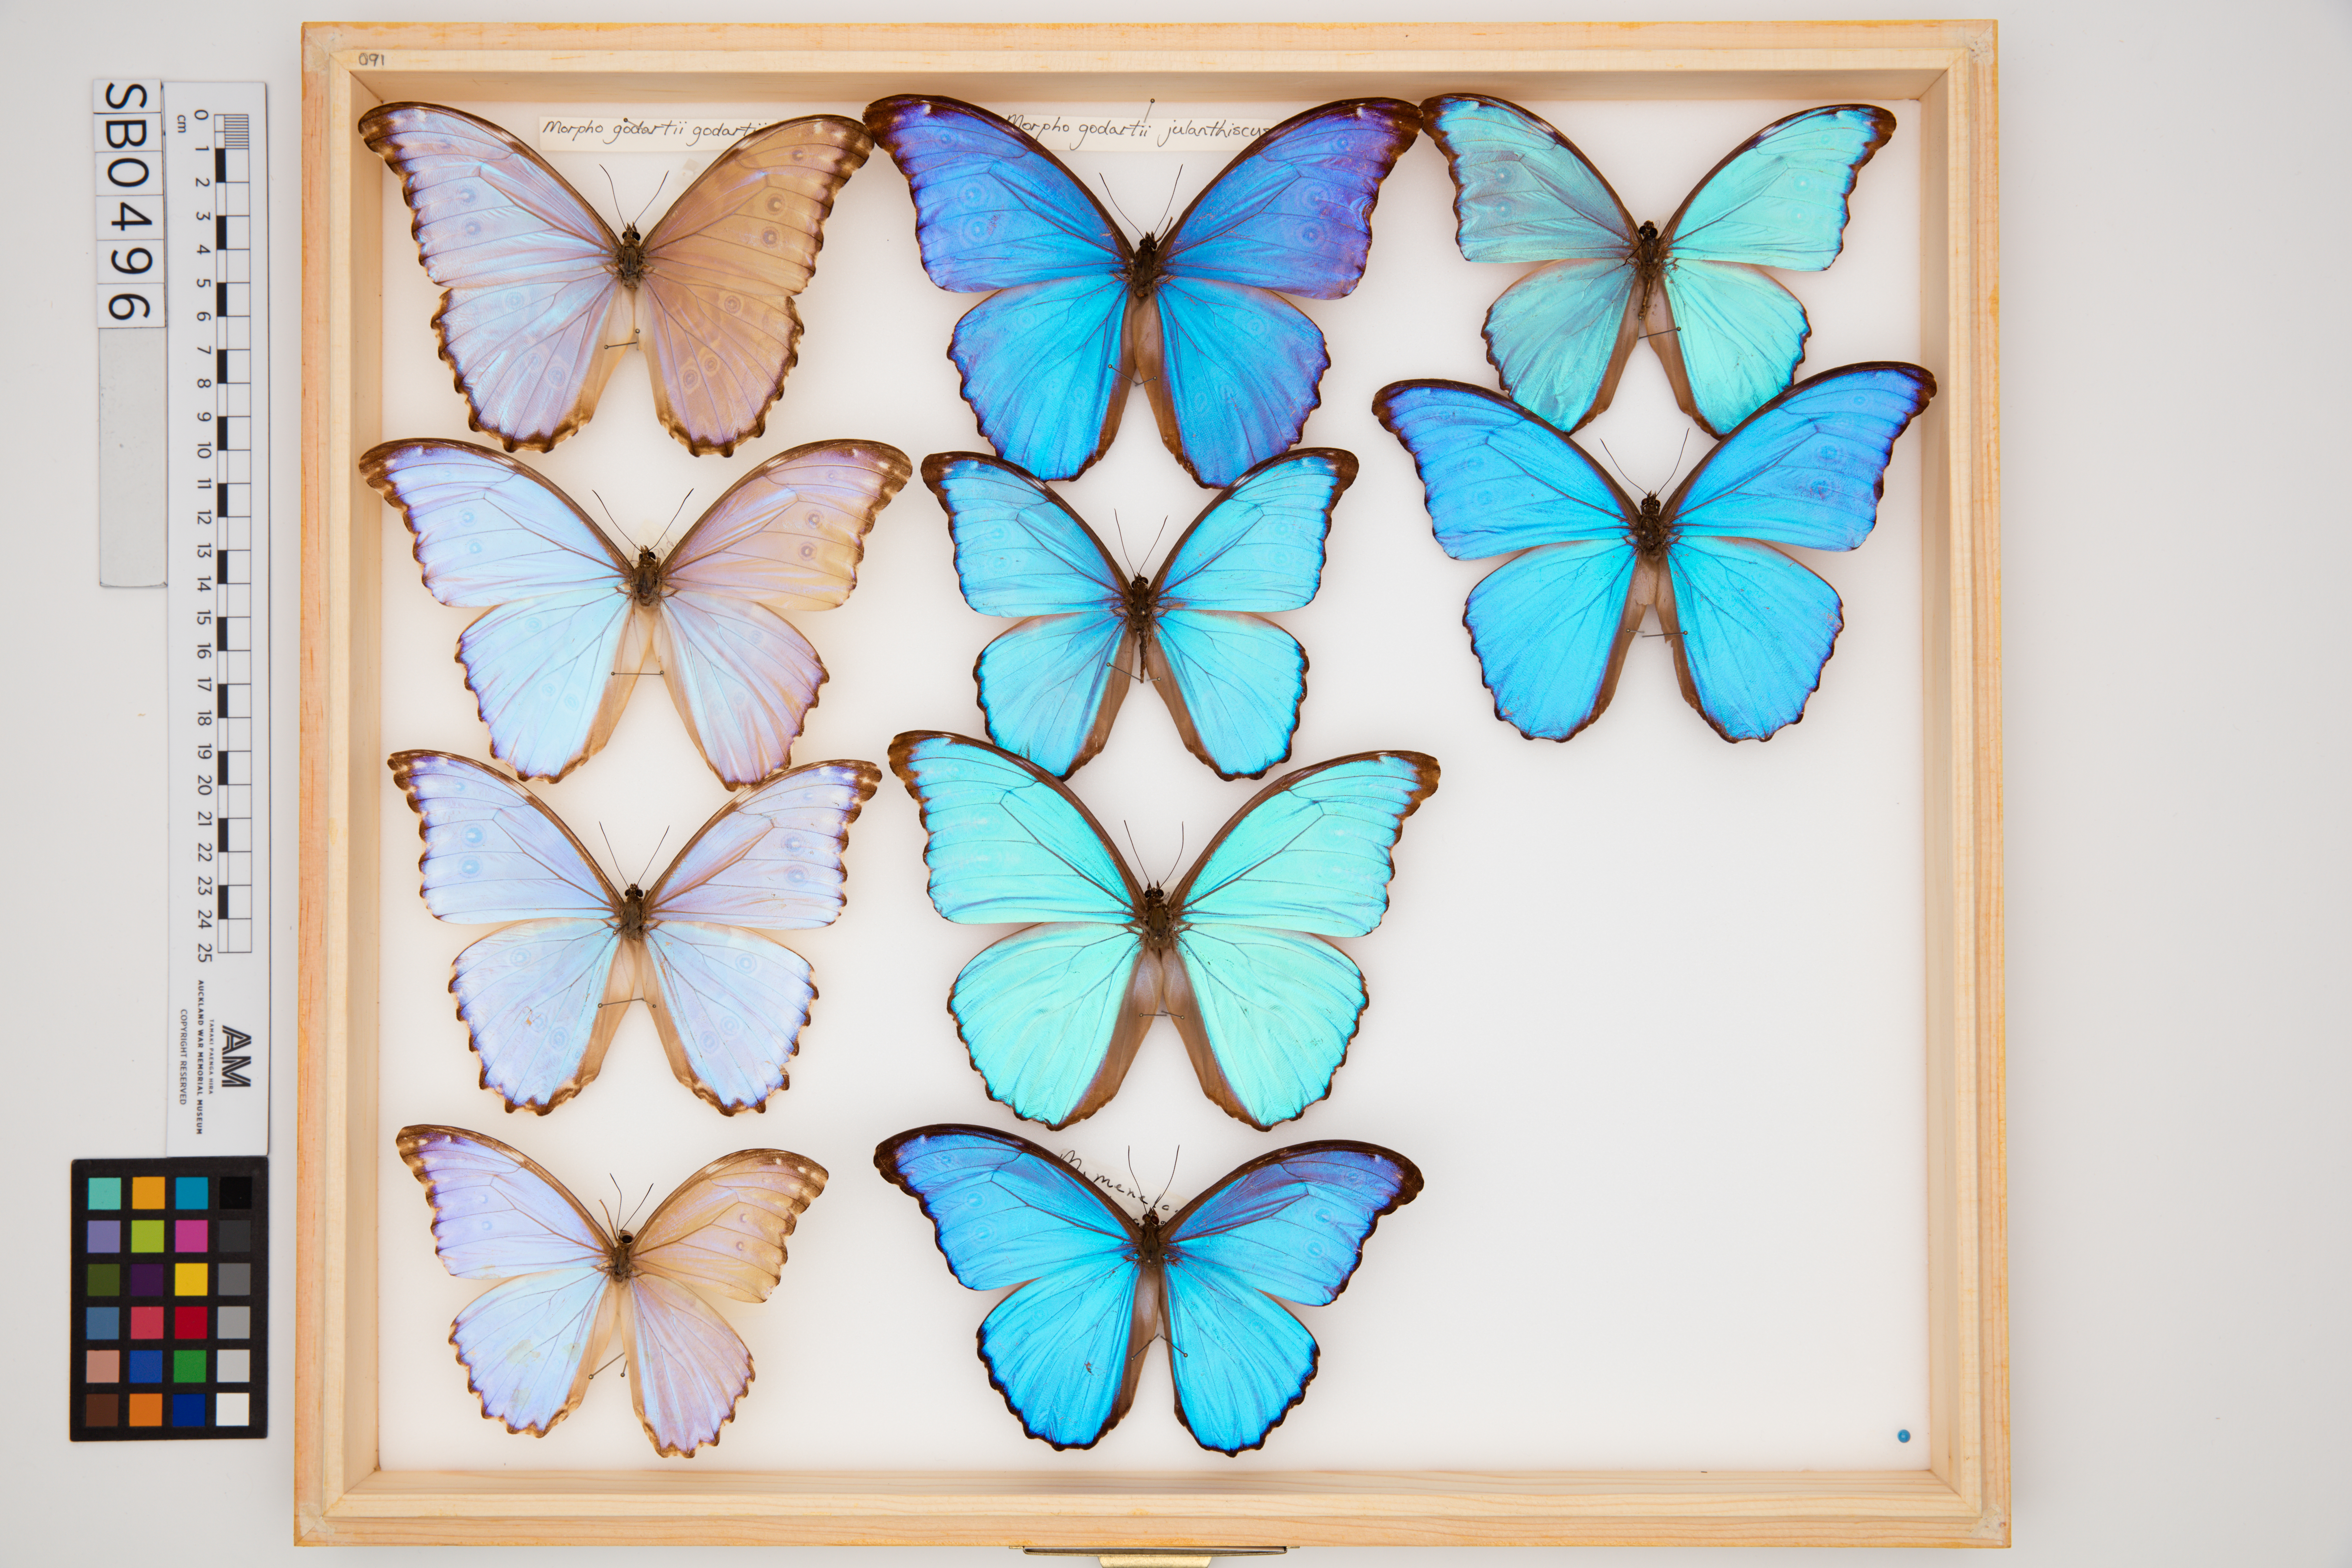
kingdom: Animalia
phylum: Arthropoda
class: Insecta
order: Lepidoptera
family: Nymphalidae
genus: Morpho
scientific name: Morpho godartii
